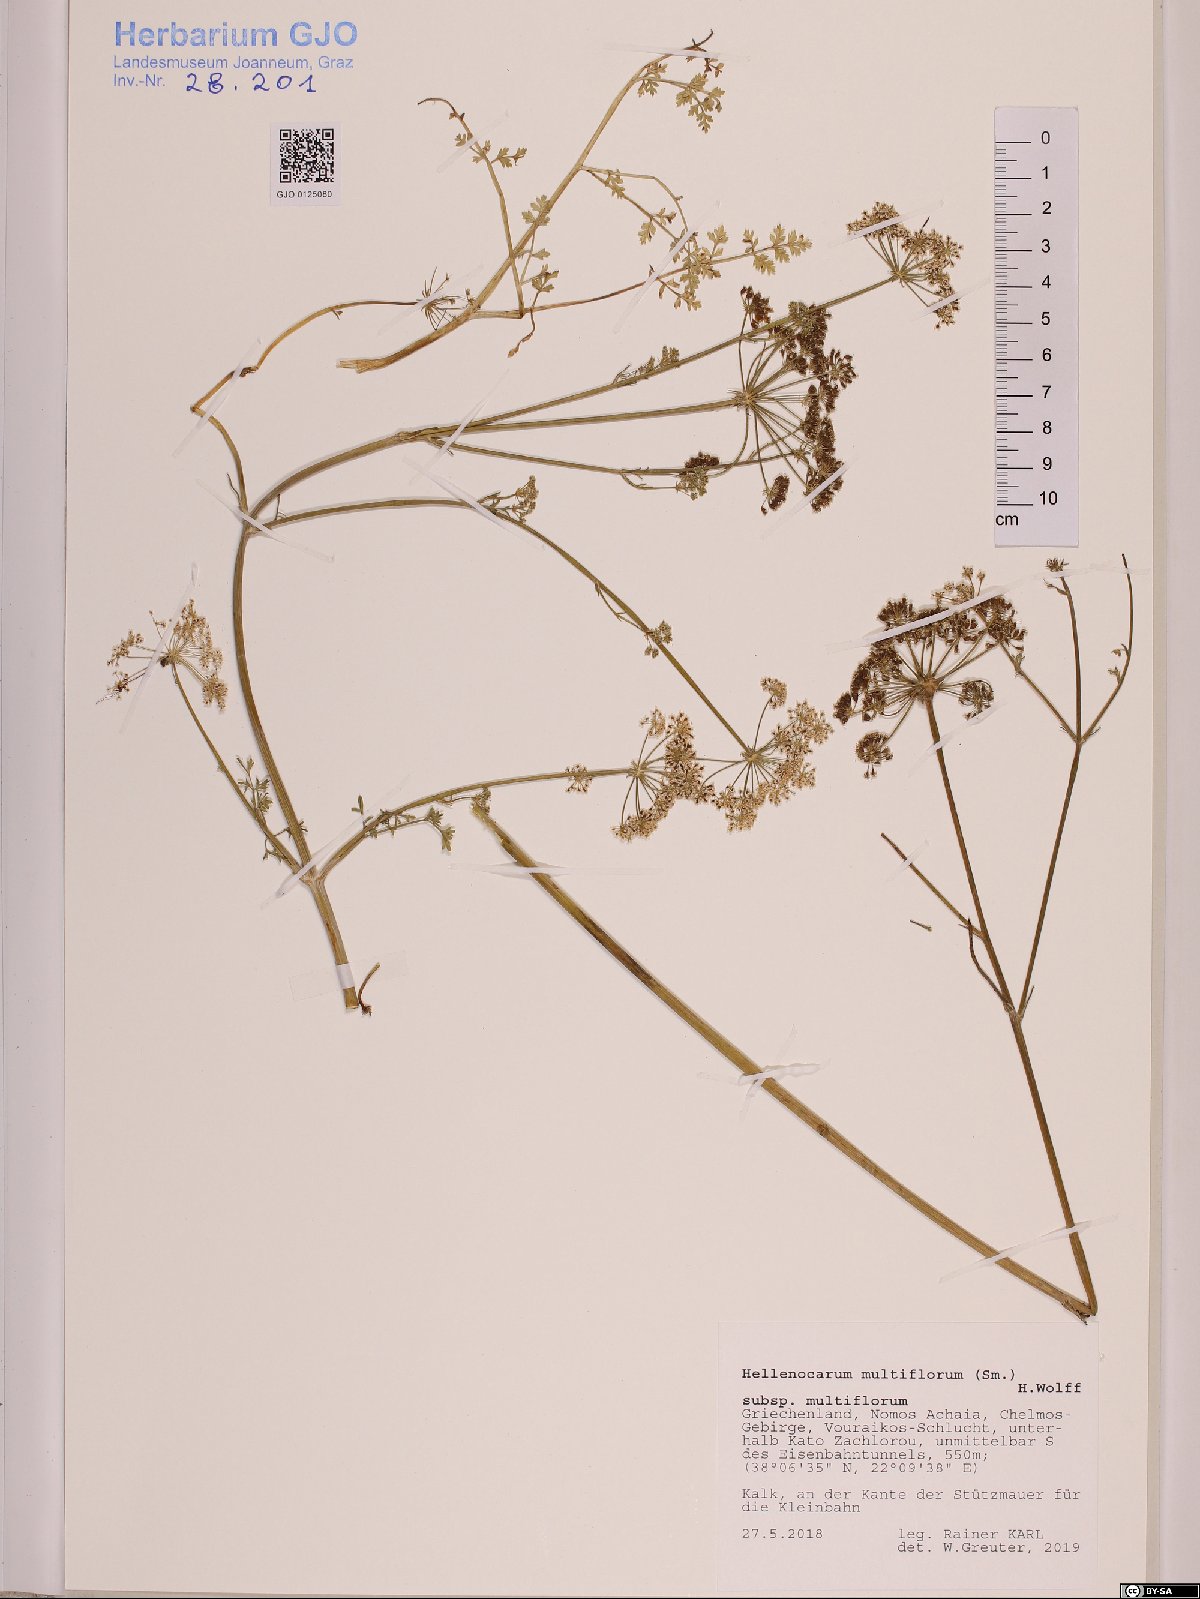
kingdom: Plantae
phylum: Tracheophyta
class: Magnoliopsida
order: Apiales
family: Apiaceae
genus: Hellenocarum
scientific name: Hellenocarum multiflorum
